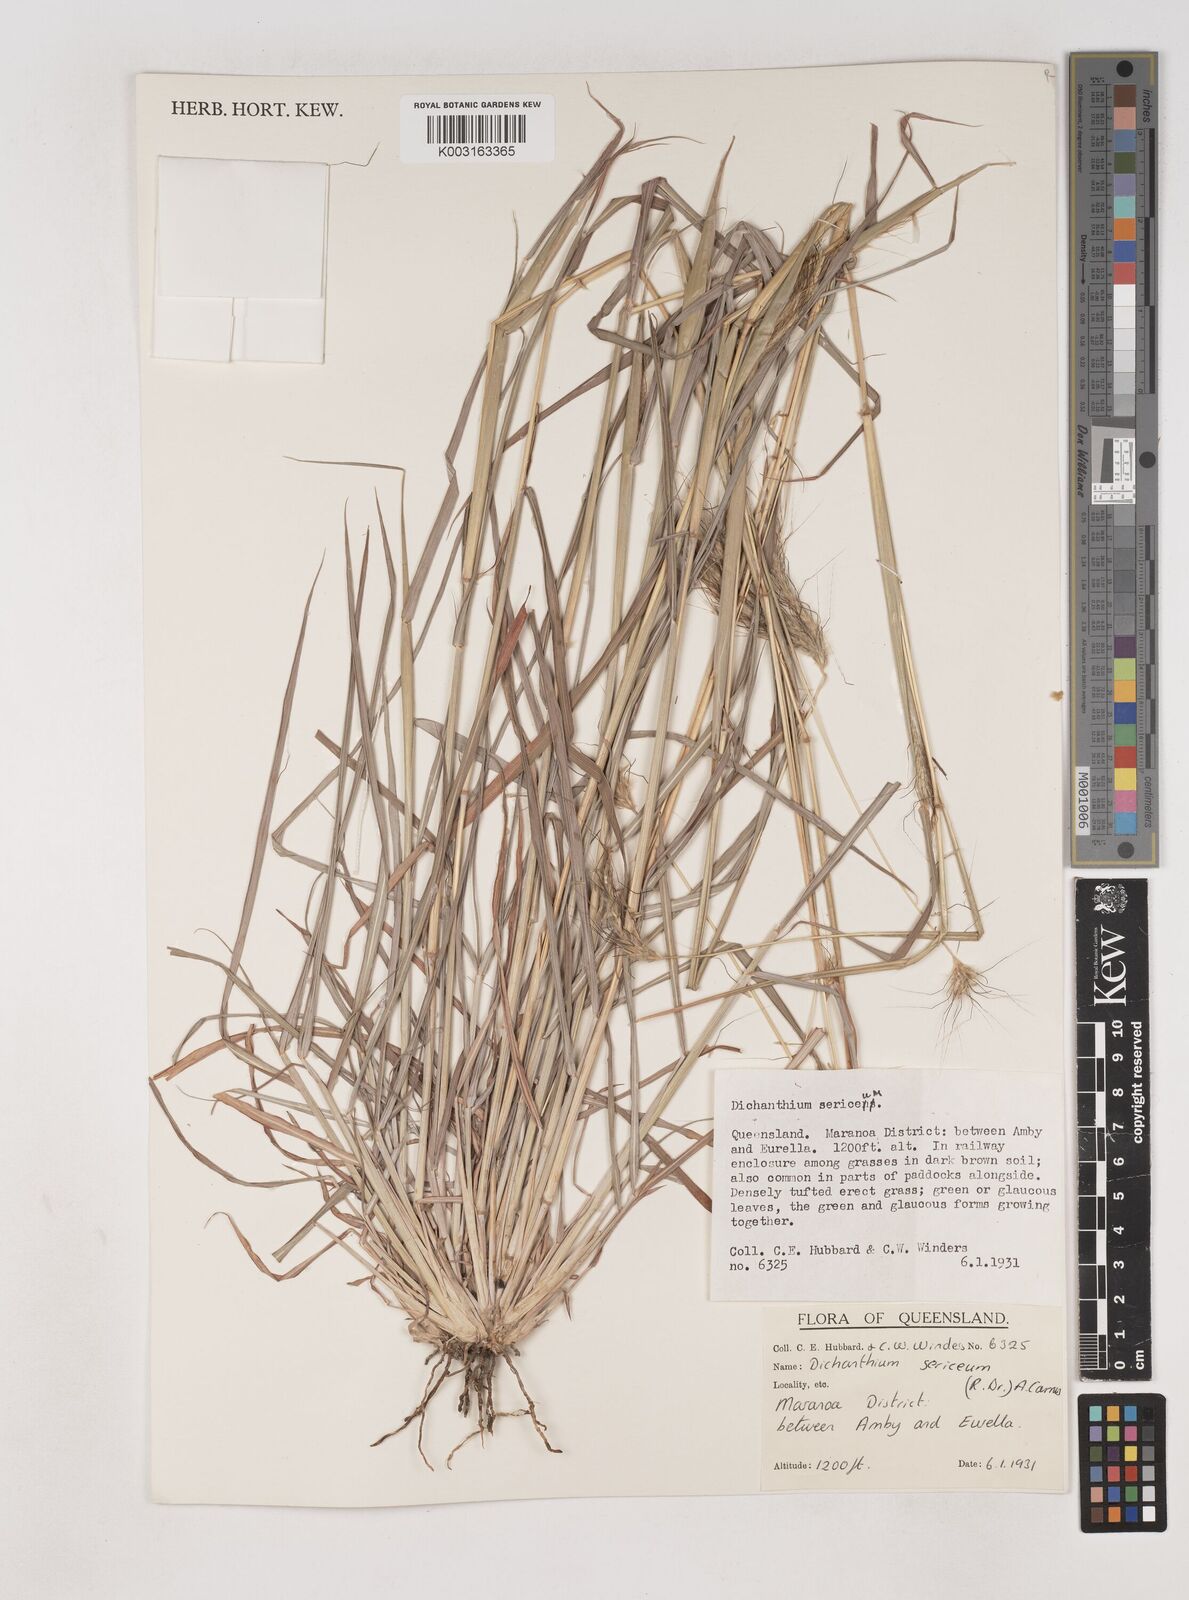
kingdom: Plantae
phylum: Tracheophyta
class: Liliopsida
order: Poales
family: Poaceae
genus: Dichanthium
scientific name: Dichanthium sericeum
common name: Silky bluestem
